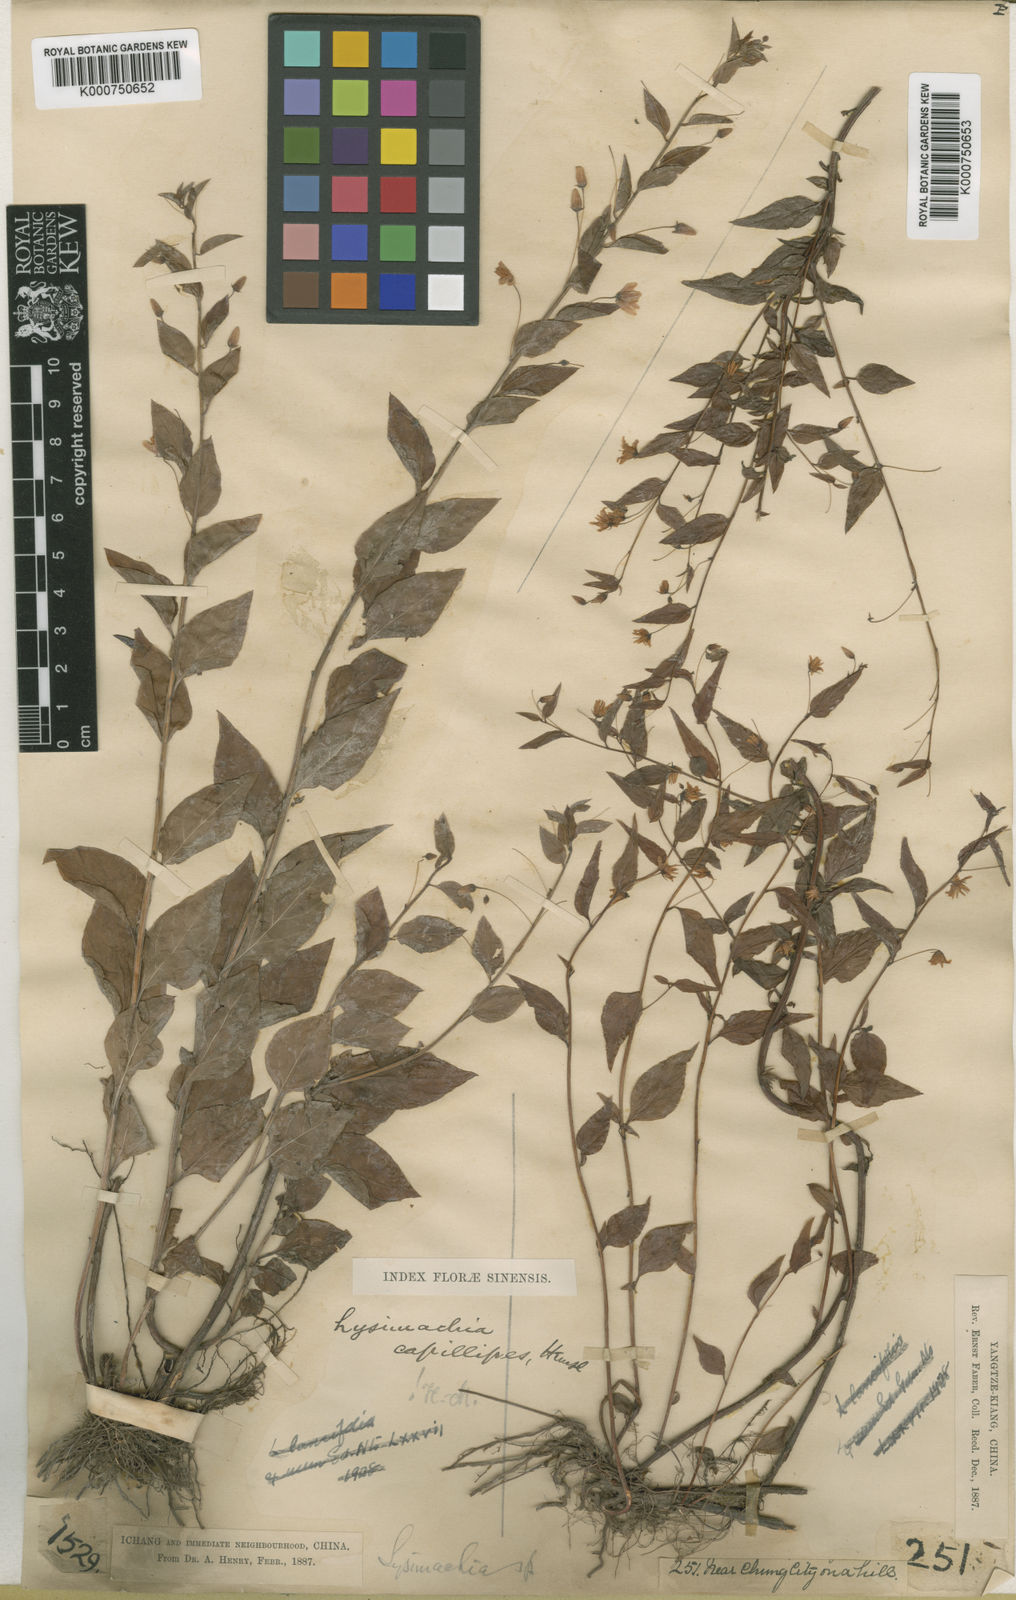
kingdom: Plantae
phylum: Tracheophyta
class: Magnoliopsida
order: Ericales
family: Primulaceae
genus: Lysimachia
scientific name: Lysimachia capillipes
